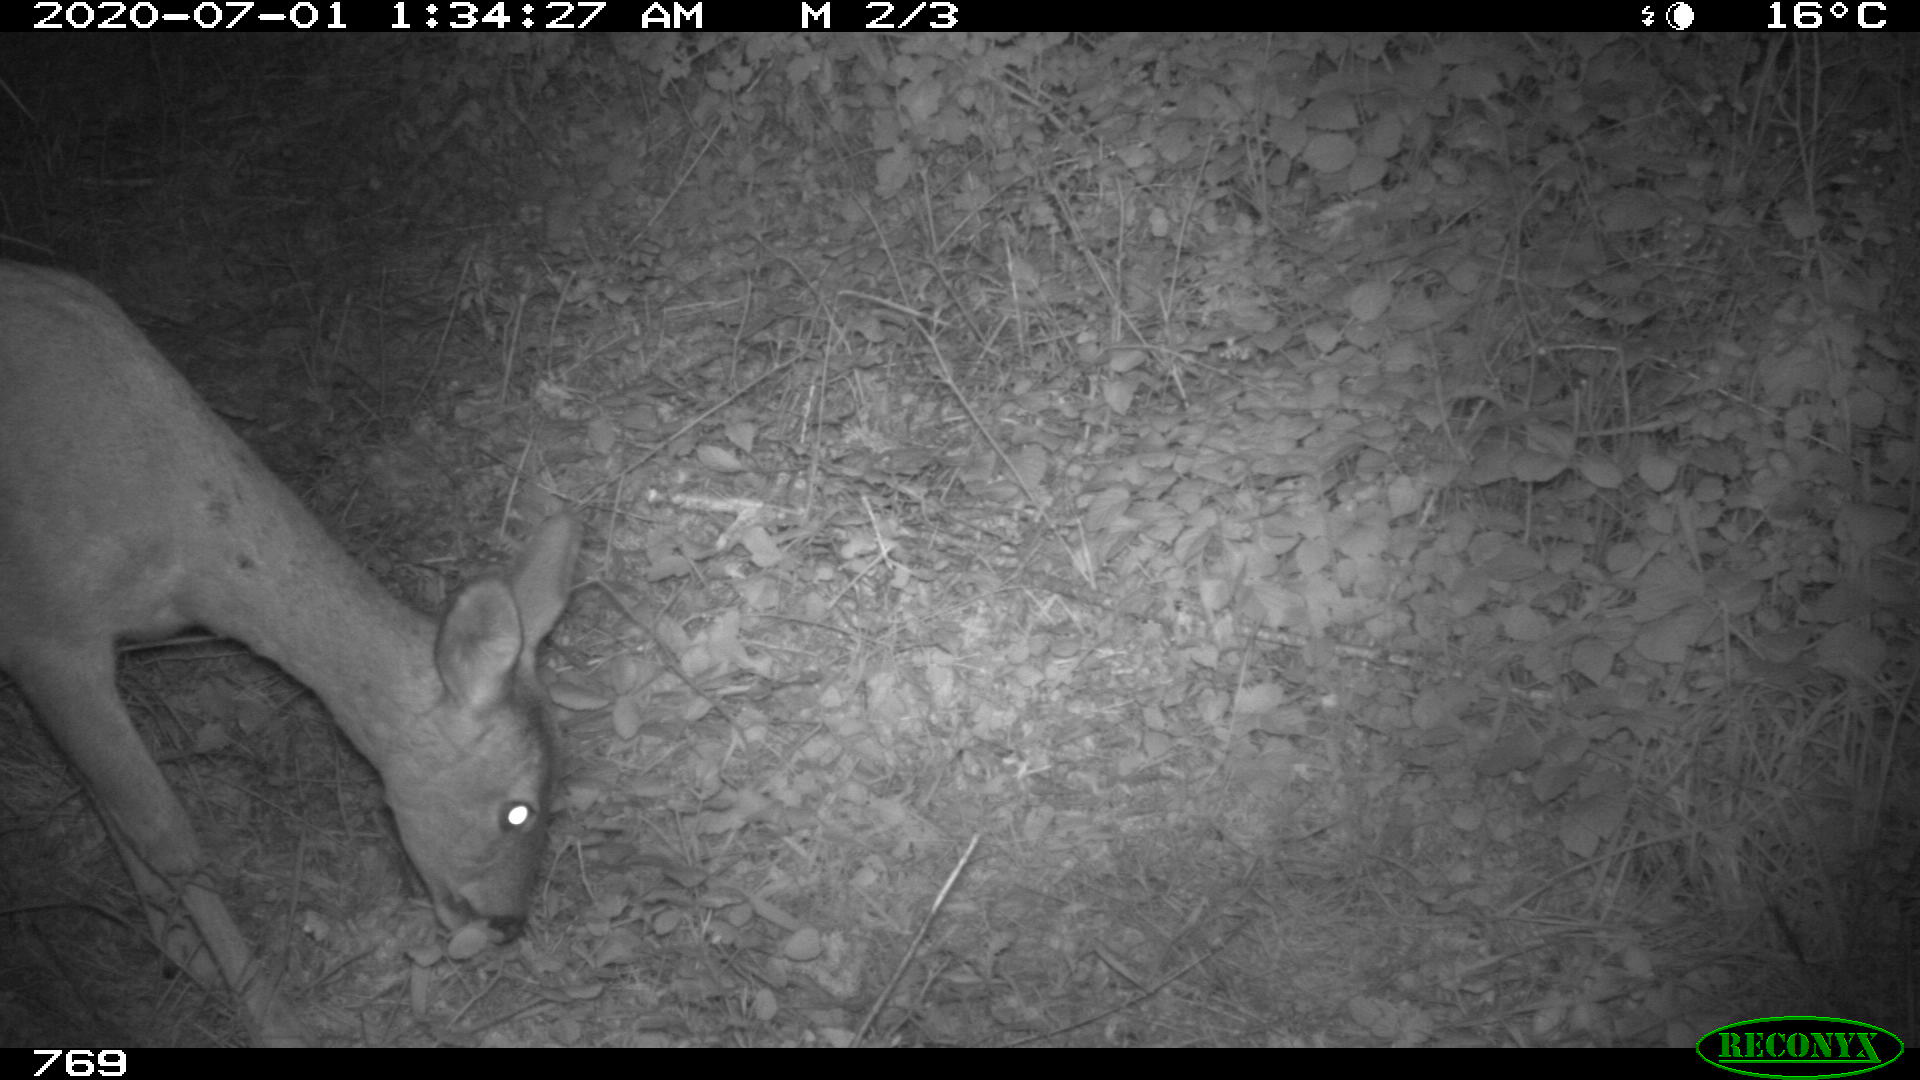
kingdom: Animalia
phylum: Chordata
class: Mammalia
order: Artiodactyla
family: Cervidae
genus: Capreolus
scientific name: Capreolus capreolus
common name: Western roe deer
